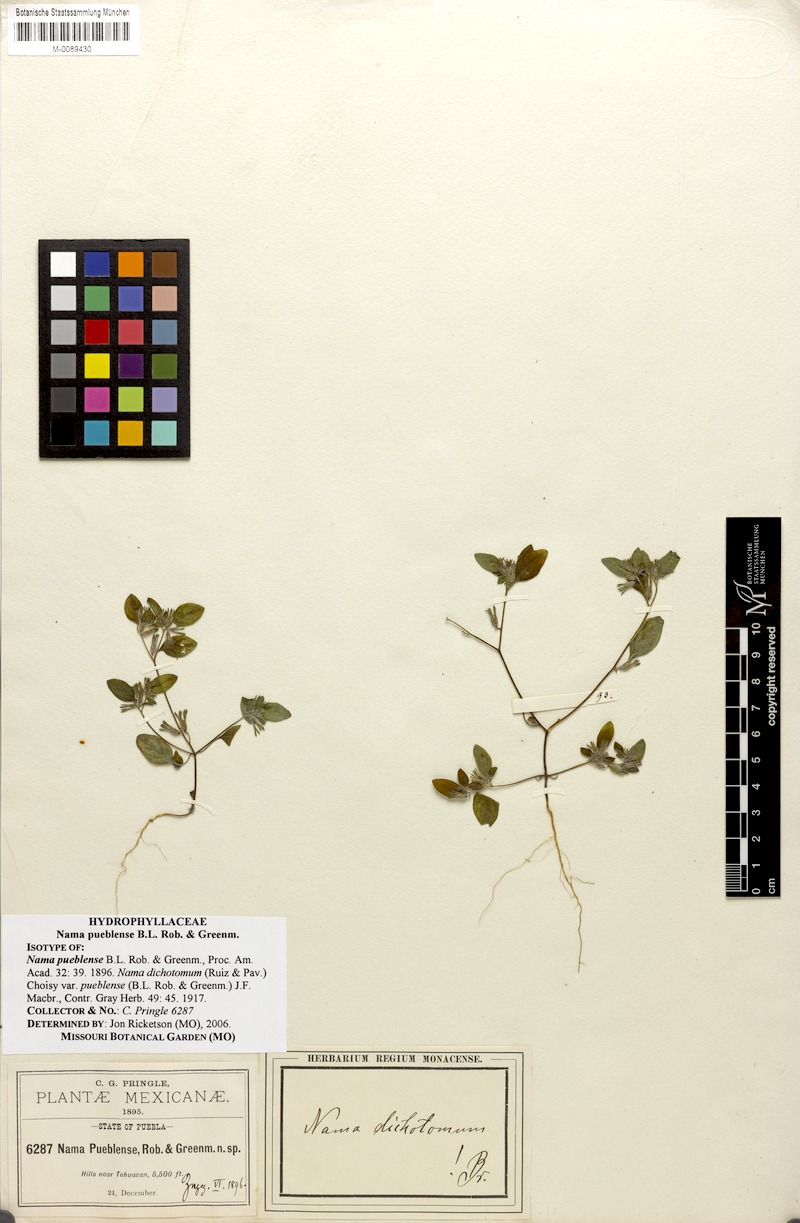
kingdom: Plantae
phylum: Tracheophyta
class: Magnoliopsida
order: Boraginales
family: Namaceae
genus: Nama
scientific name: Nama dichotoma
